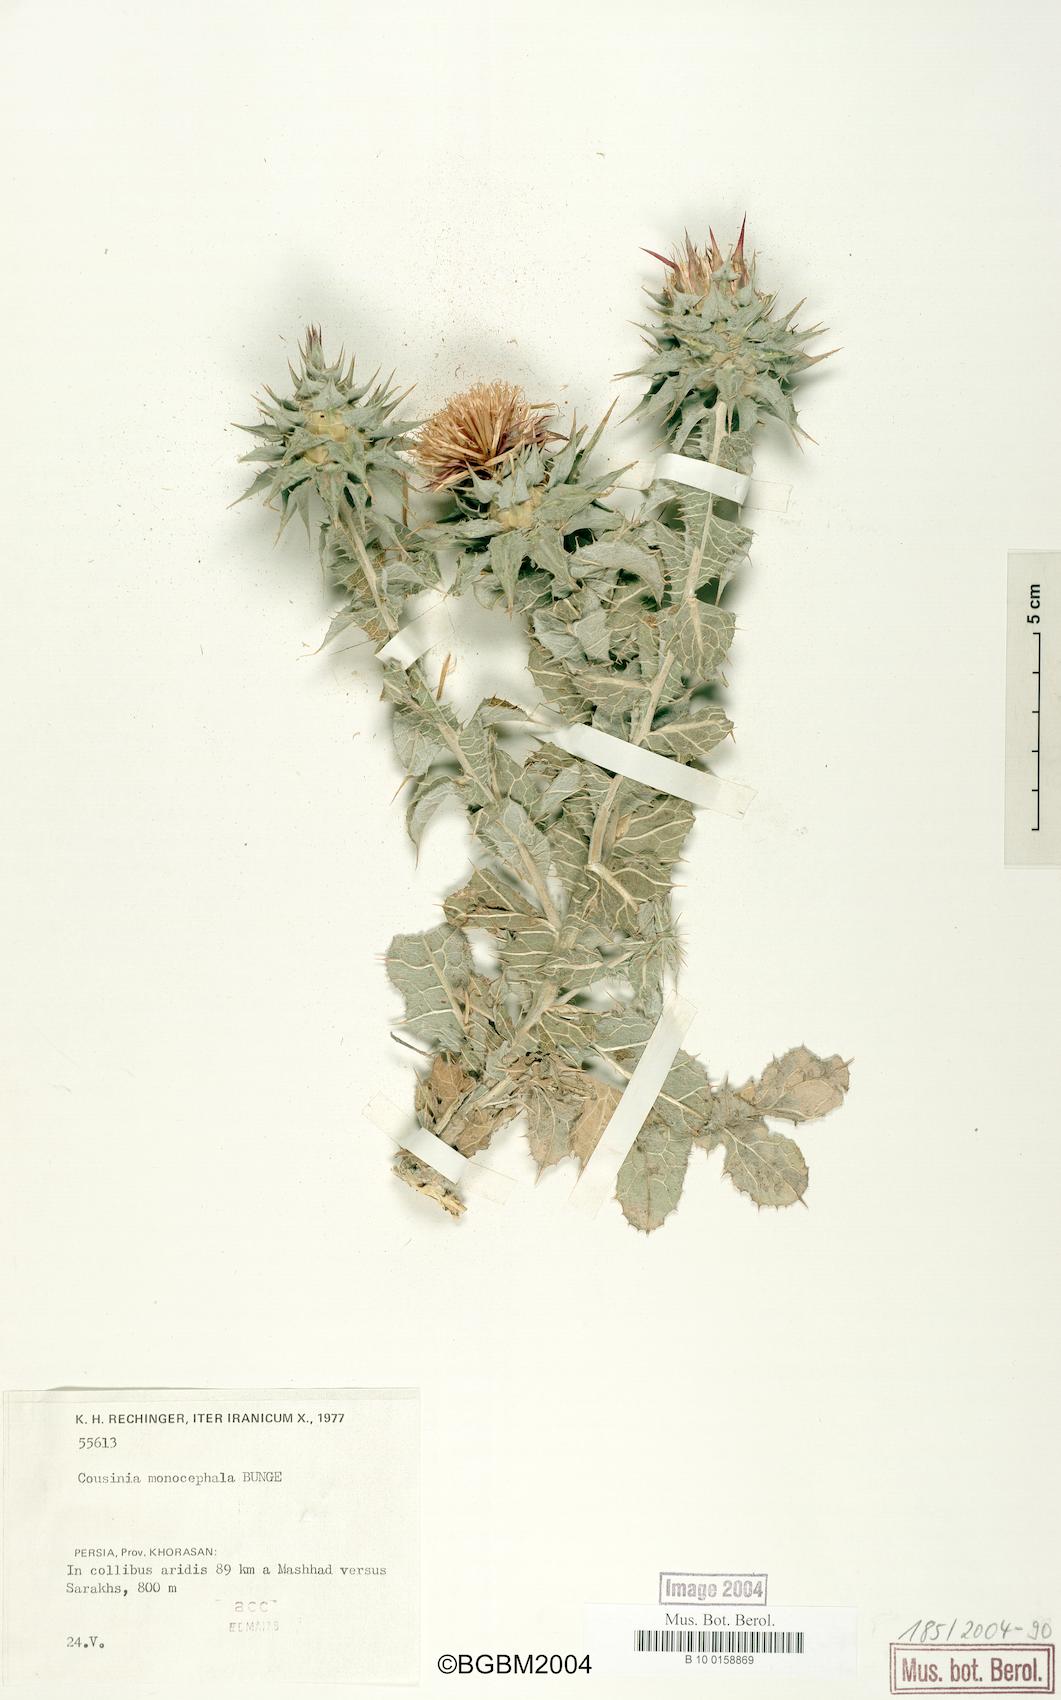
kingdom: Plantae
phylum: Tracheophyta
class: Magnoliopsida
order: Asterales
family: Asteraceae
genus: Cousinia
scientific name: Cousinia monocephala
